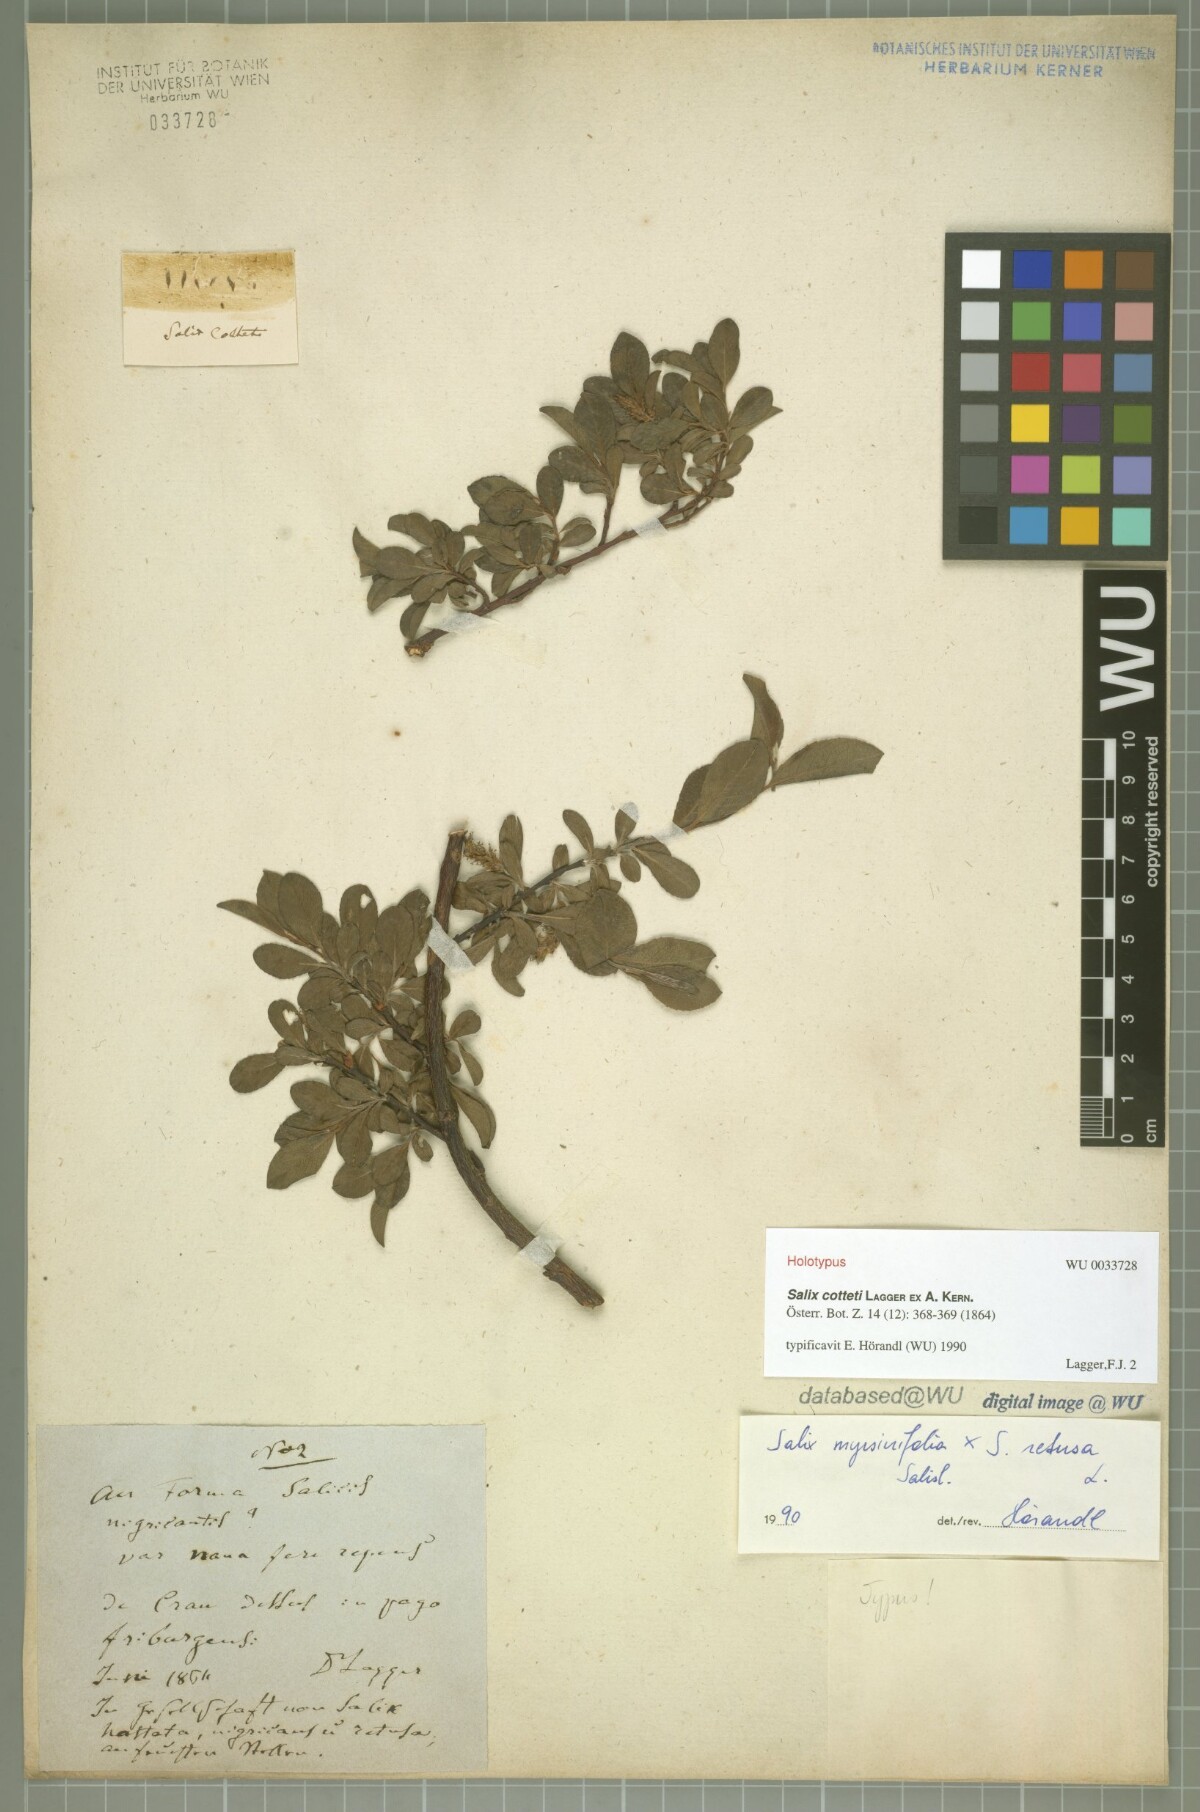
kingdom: Plantae
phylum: Tracheophyta
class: Magnoliopsida
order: Malpighiales
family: Salicaceae
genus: Salix
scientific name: Salix cottetii
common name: Dwarf willow
